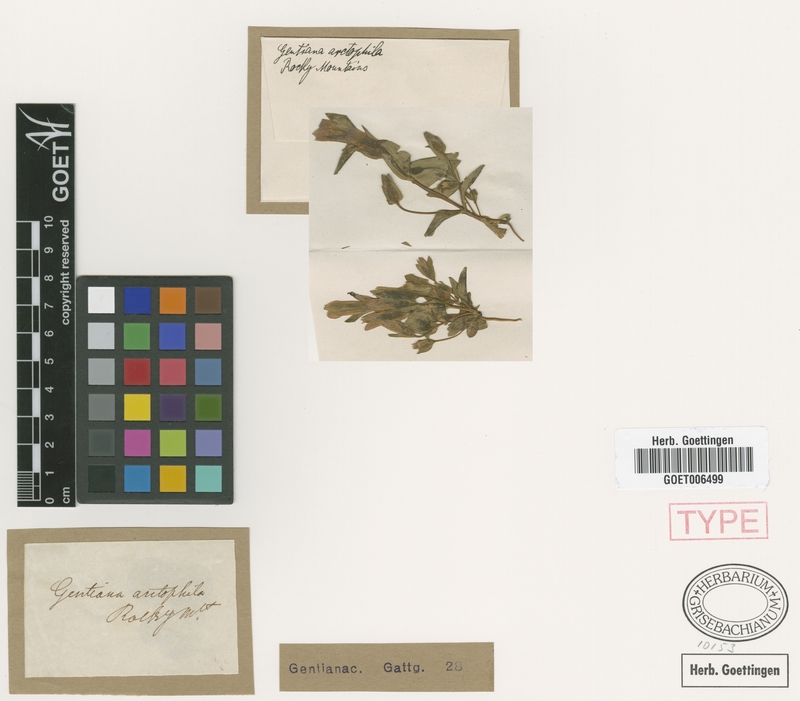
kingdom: Plantae
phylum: Tracheophyta
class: Magnoliopsida
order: Gentianales
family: Gentianaceae
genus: Gentianella
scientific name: Gentianella propinqua
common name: Four-parted dwarf-gentian
